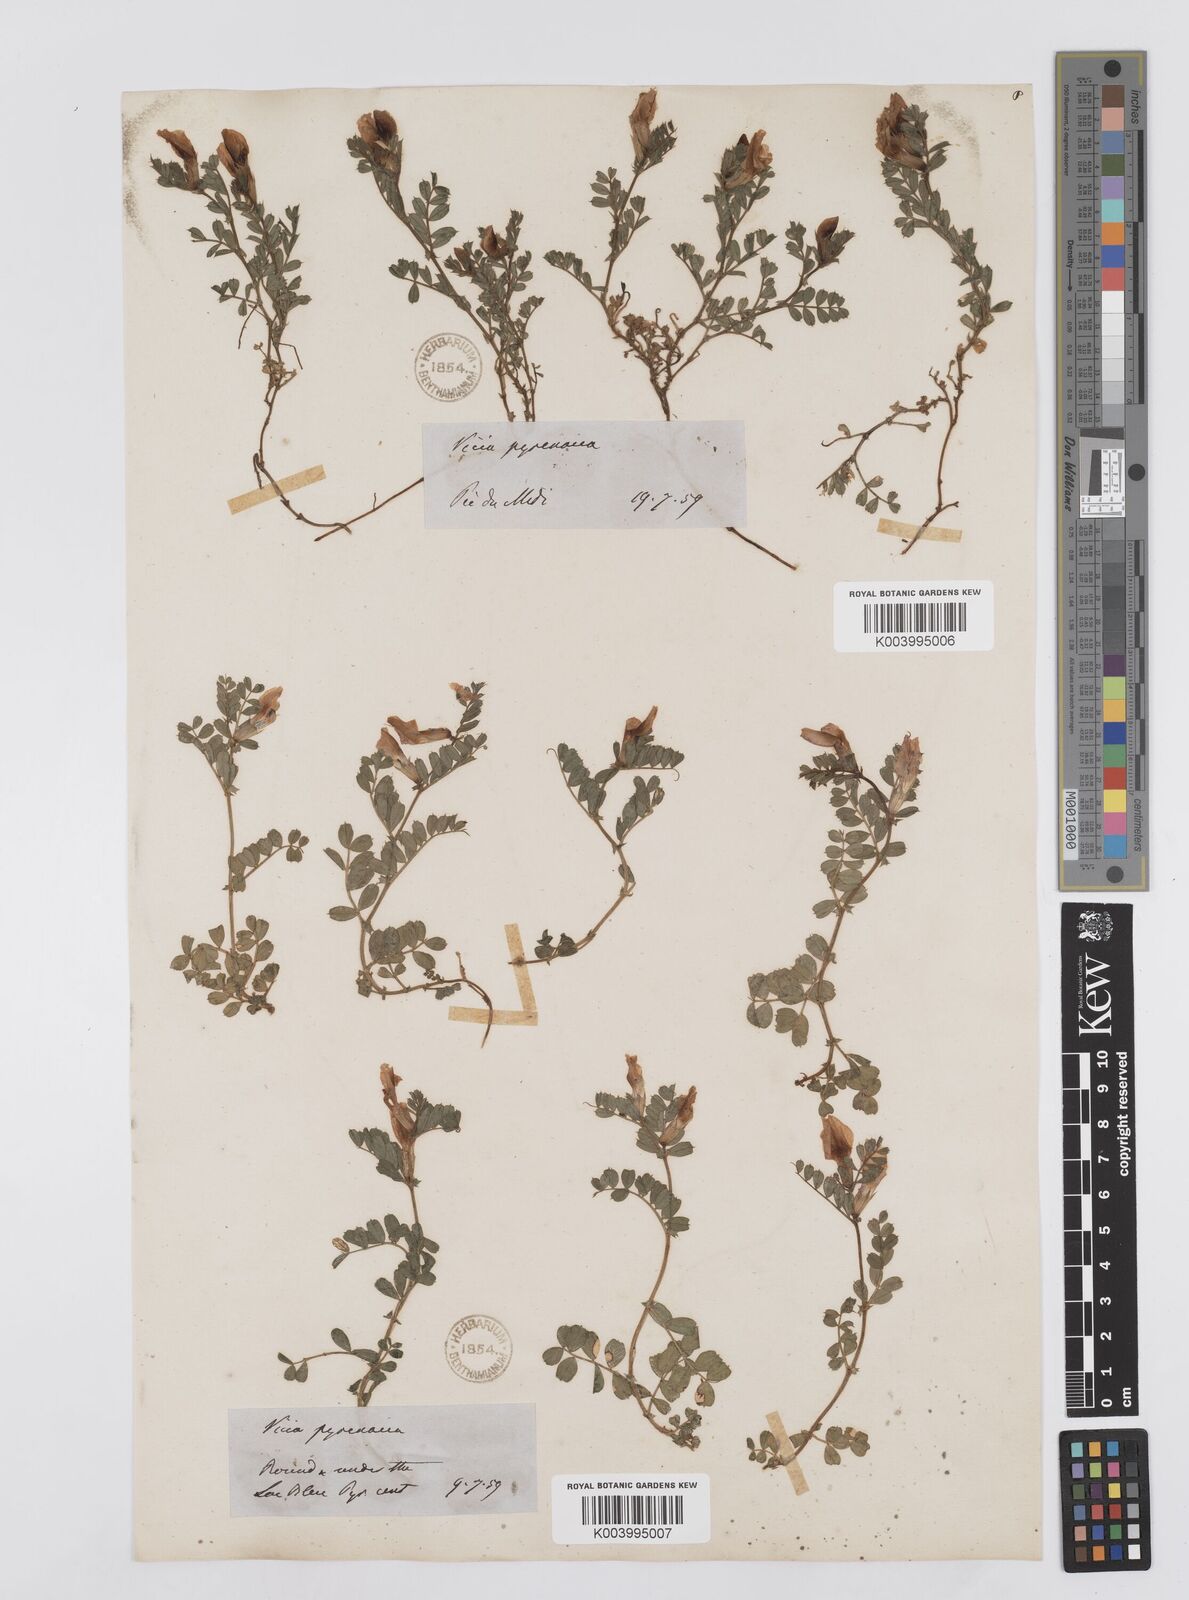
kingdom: Plantae
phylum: Tracheophyta
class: Magnoliopsida
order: Fabales
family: Fabaceae
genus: Vicia
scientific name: Vicia pyrenaica
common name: Pyrenean vetch
